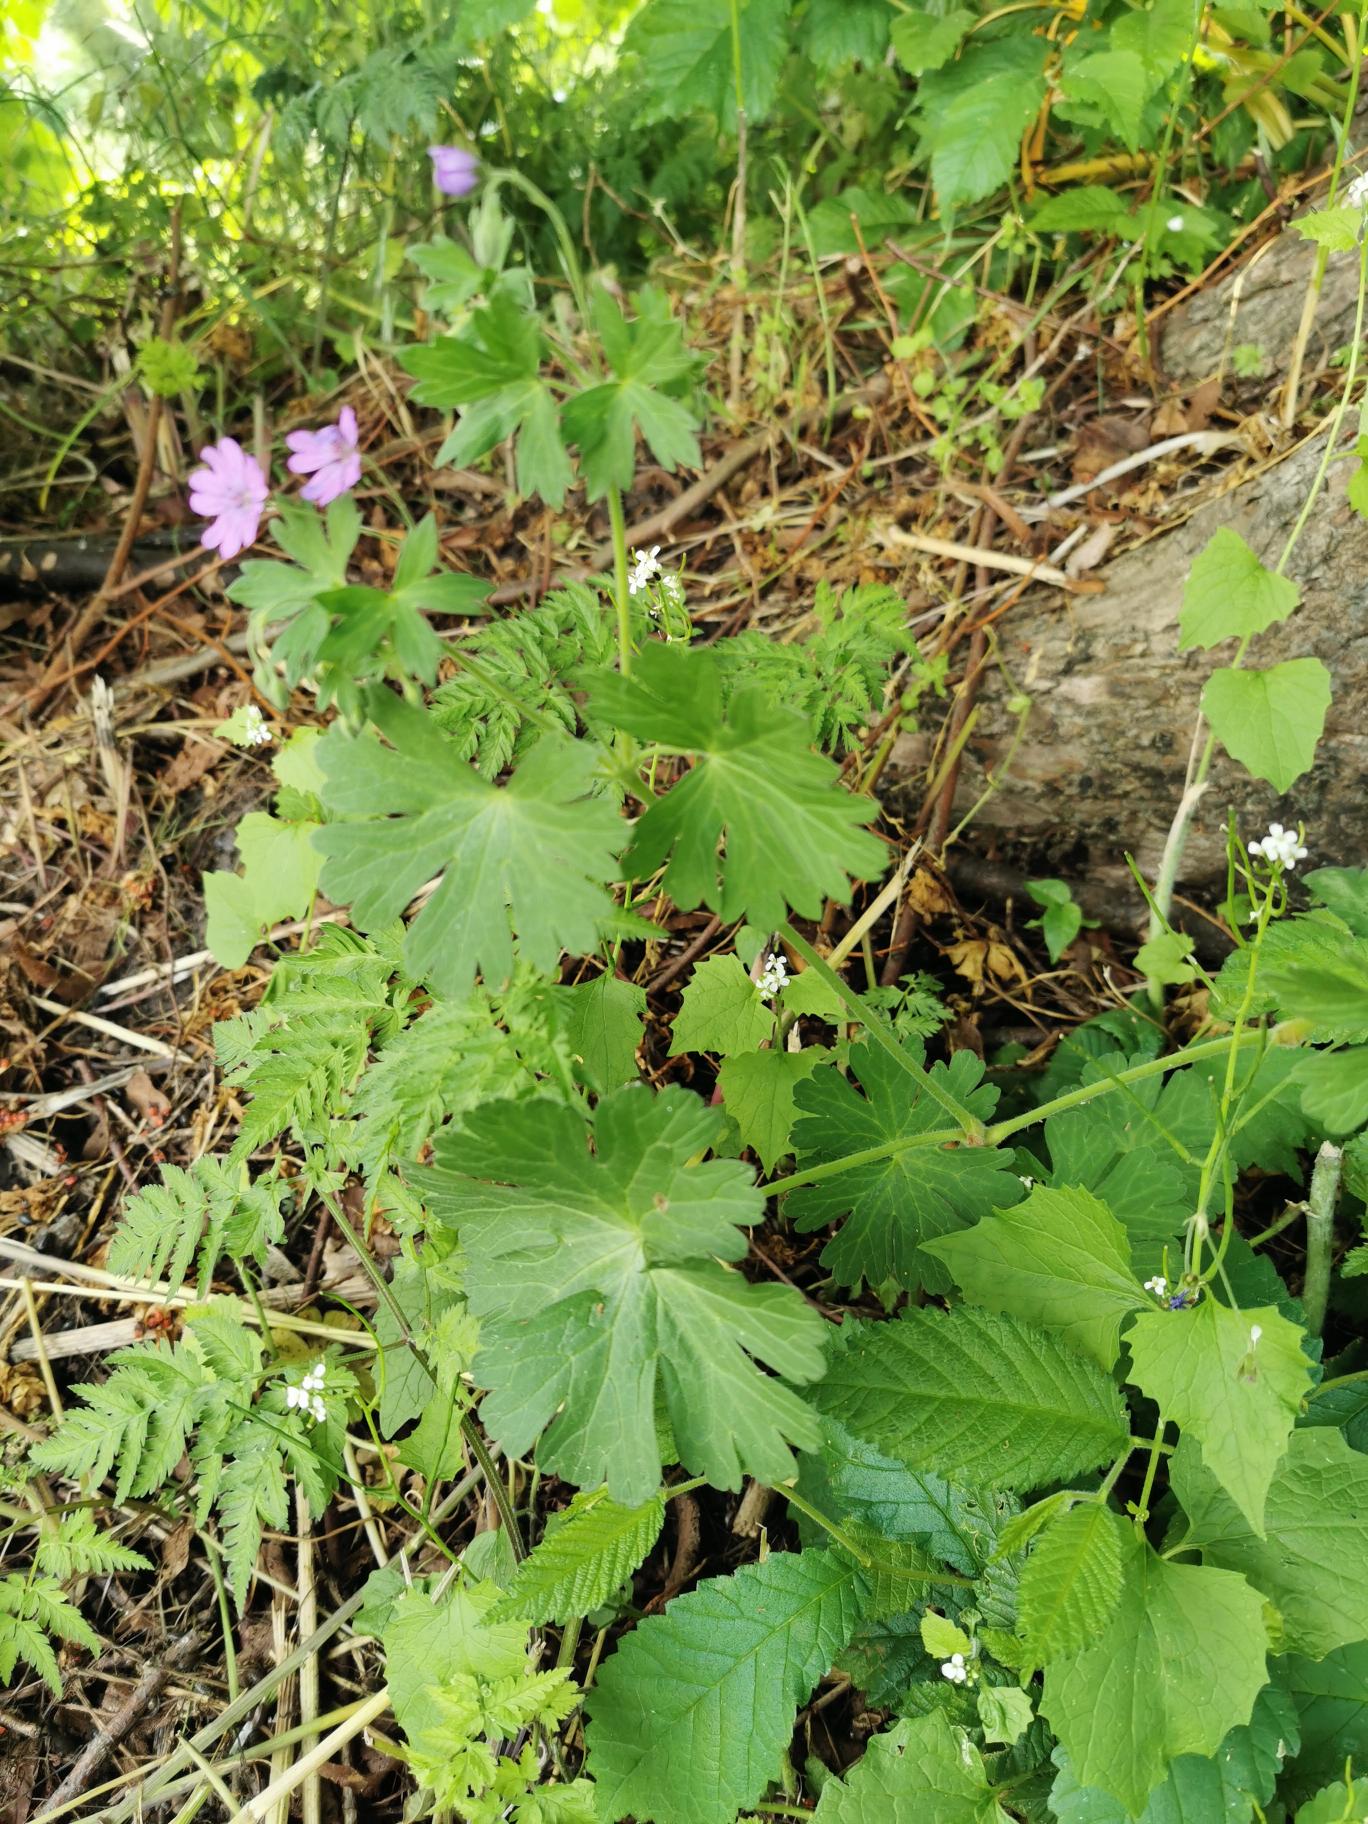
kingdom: Plantae
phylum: Tracheophyta
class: Magnoliopsida
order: Geraniales
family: Geraniaceae
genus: Geranium
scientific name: Geranium pyrenaicum
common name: Pyrenæisk storkenæb
